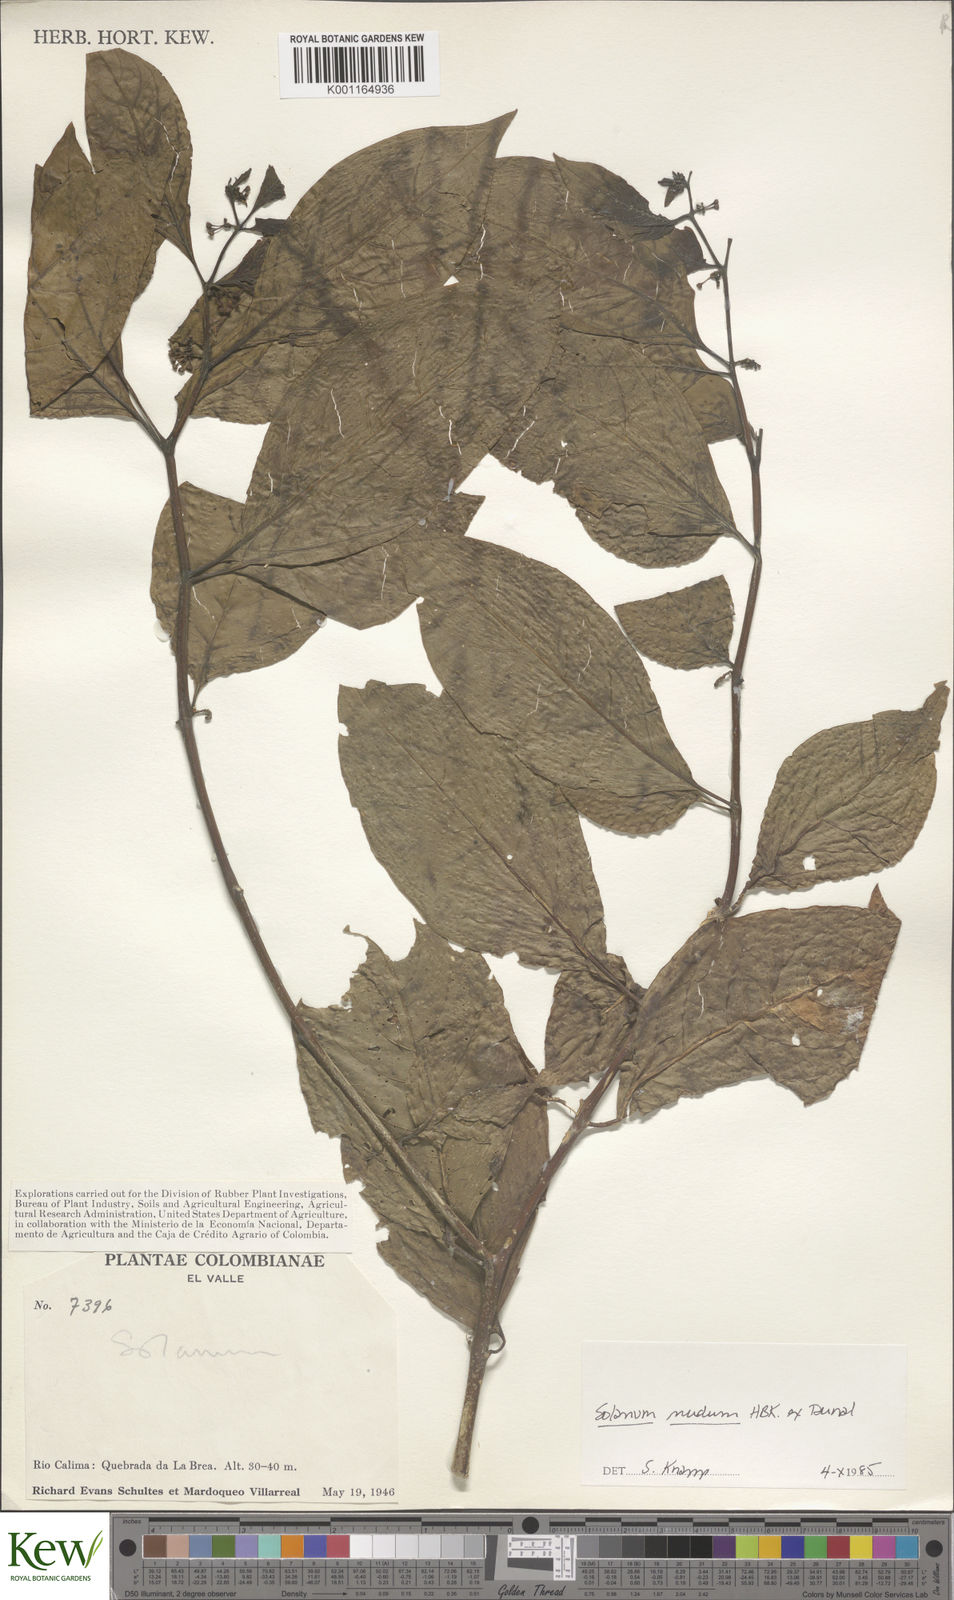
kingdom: Plantae
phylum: Tracheophyta
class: Magnoliopsida
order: Solanales
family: Solanaceae
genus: Solanum
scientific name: Solanum nudum
